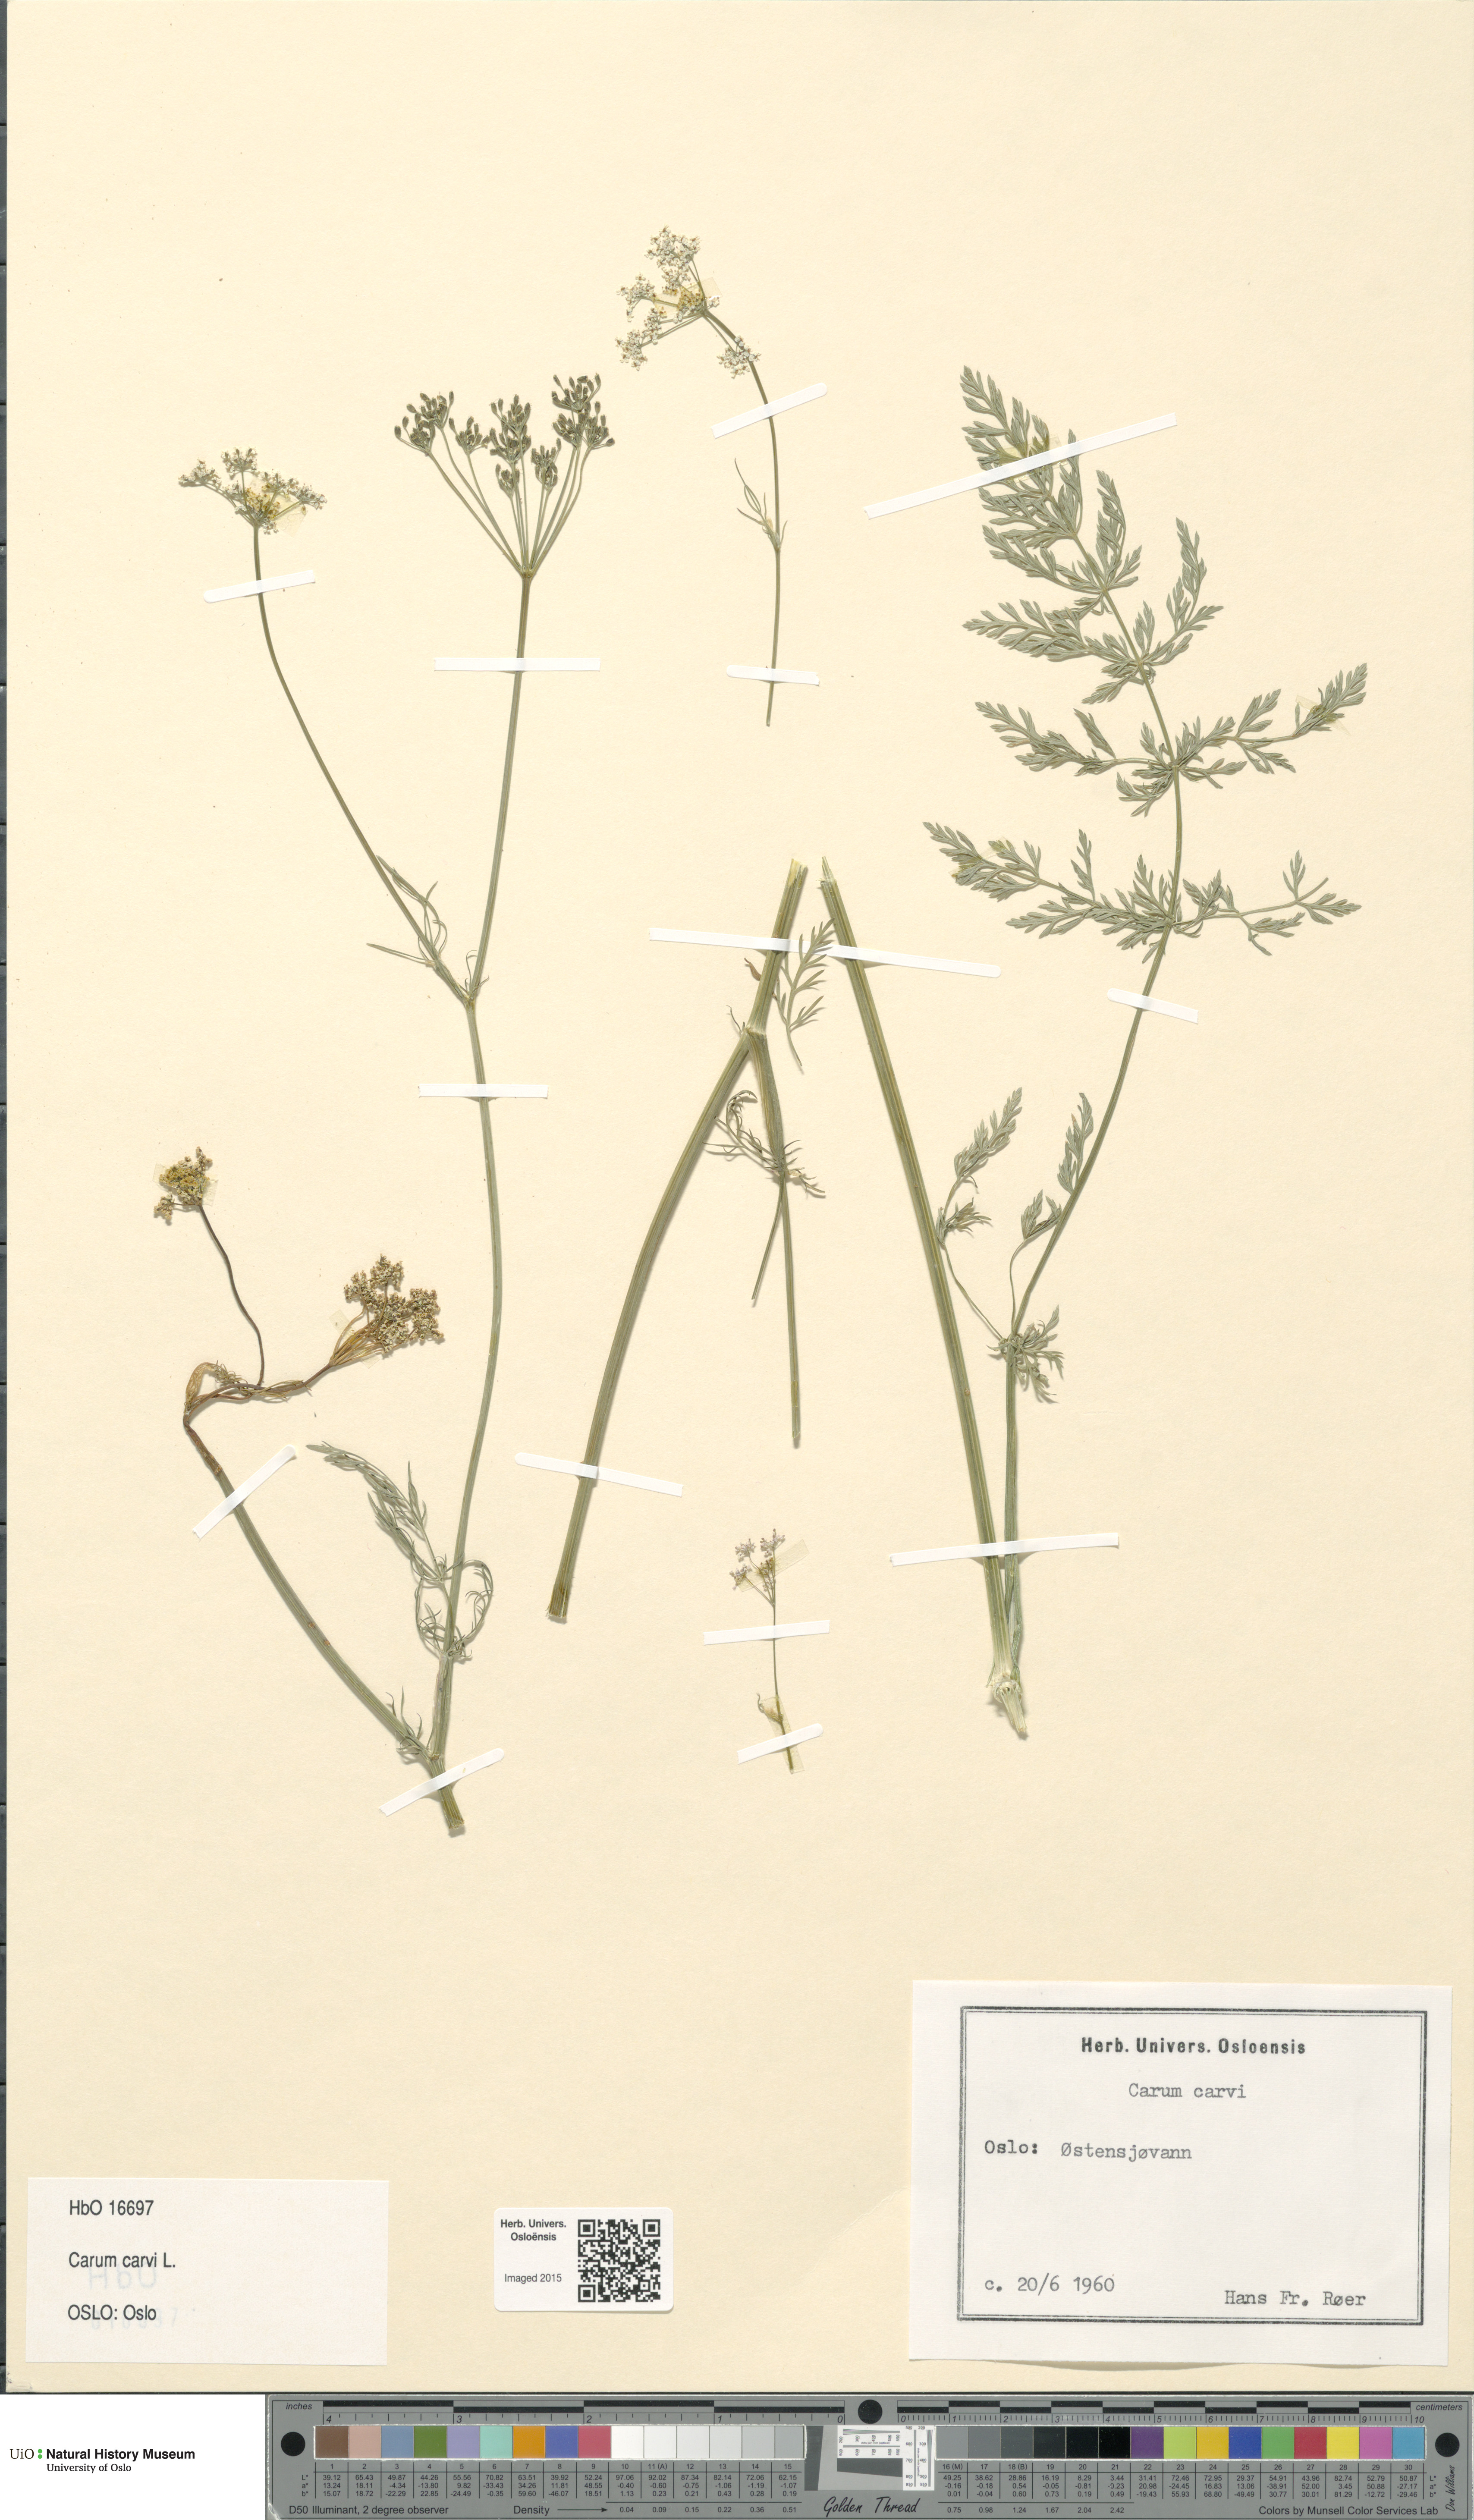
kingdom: Plantae
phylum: Tracheophyta
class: Magnoliopsida
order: Apiales
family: Apiaceae
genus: Carum
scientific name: Carum carvi
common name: Caraway
